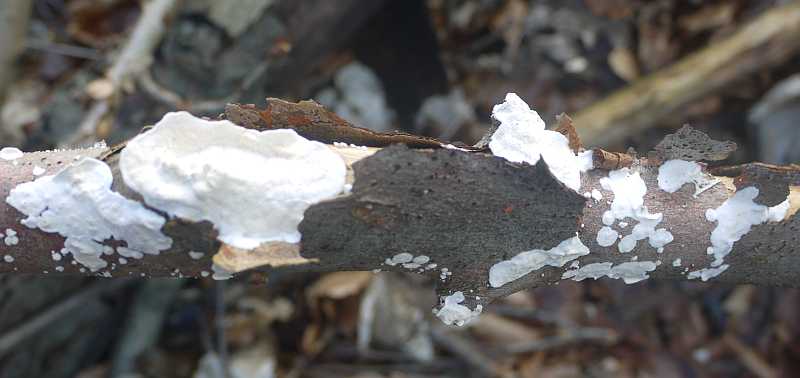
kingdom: Fungi
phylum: Basidiomycota
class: Agaricomycetes
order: Polyporales
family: Irpicaceae
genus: Byssomerulius
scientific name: Byssomerulius corium
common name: læder-åresvamp
